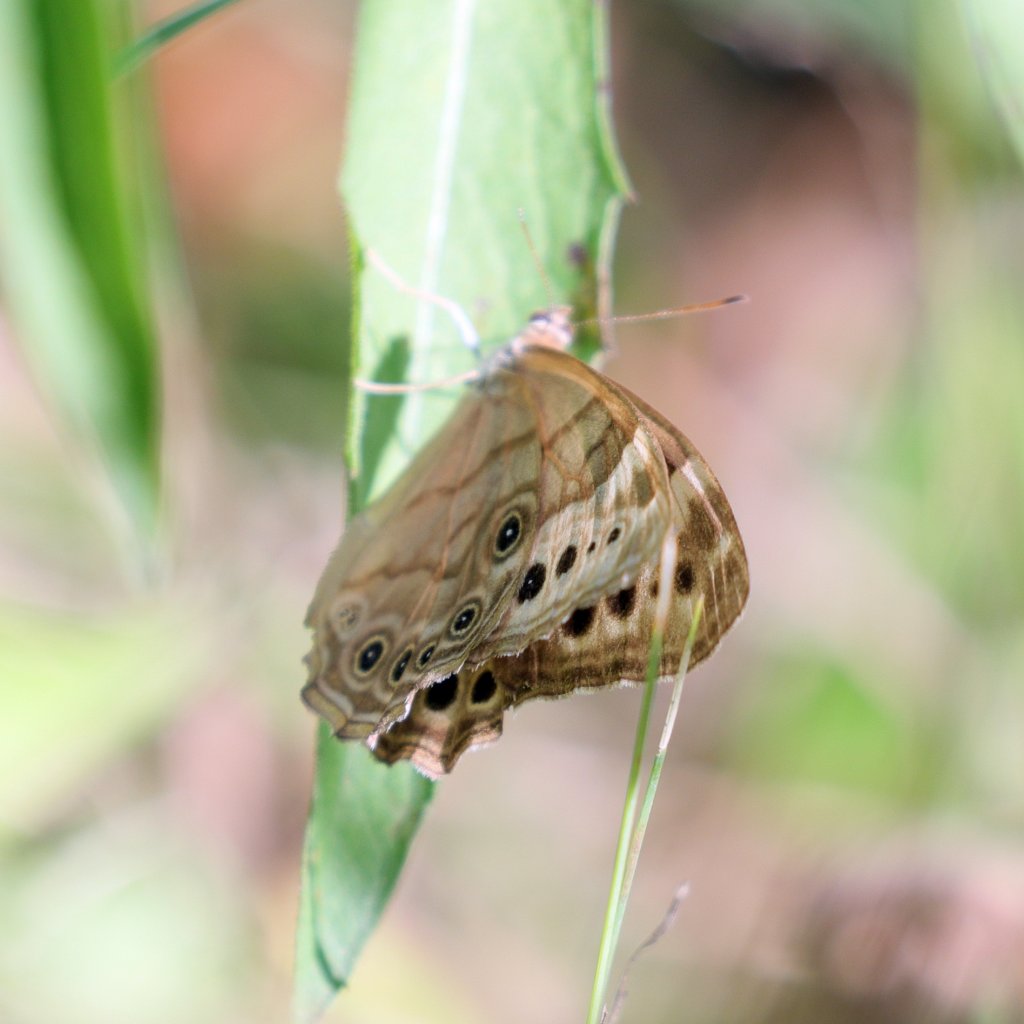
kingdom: Animalia
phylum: Arthropoda
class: Insecta
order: Lepidoptera
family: Nymphalidae
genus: Lethe
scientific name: Lethe anthedon
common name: Northern Pearly-Eye
